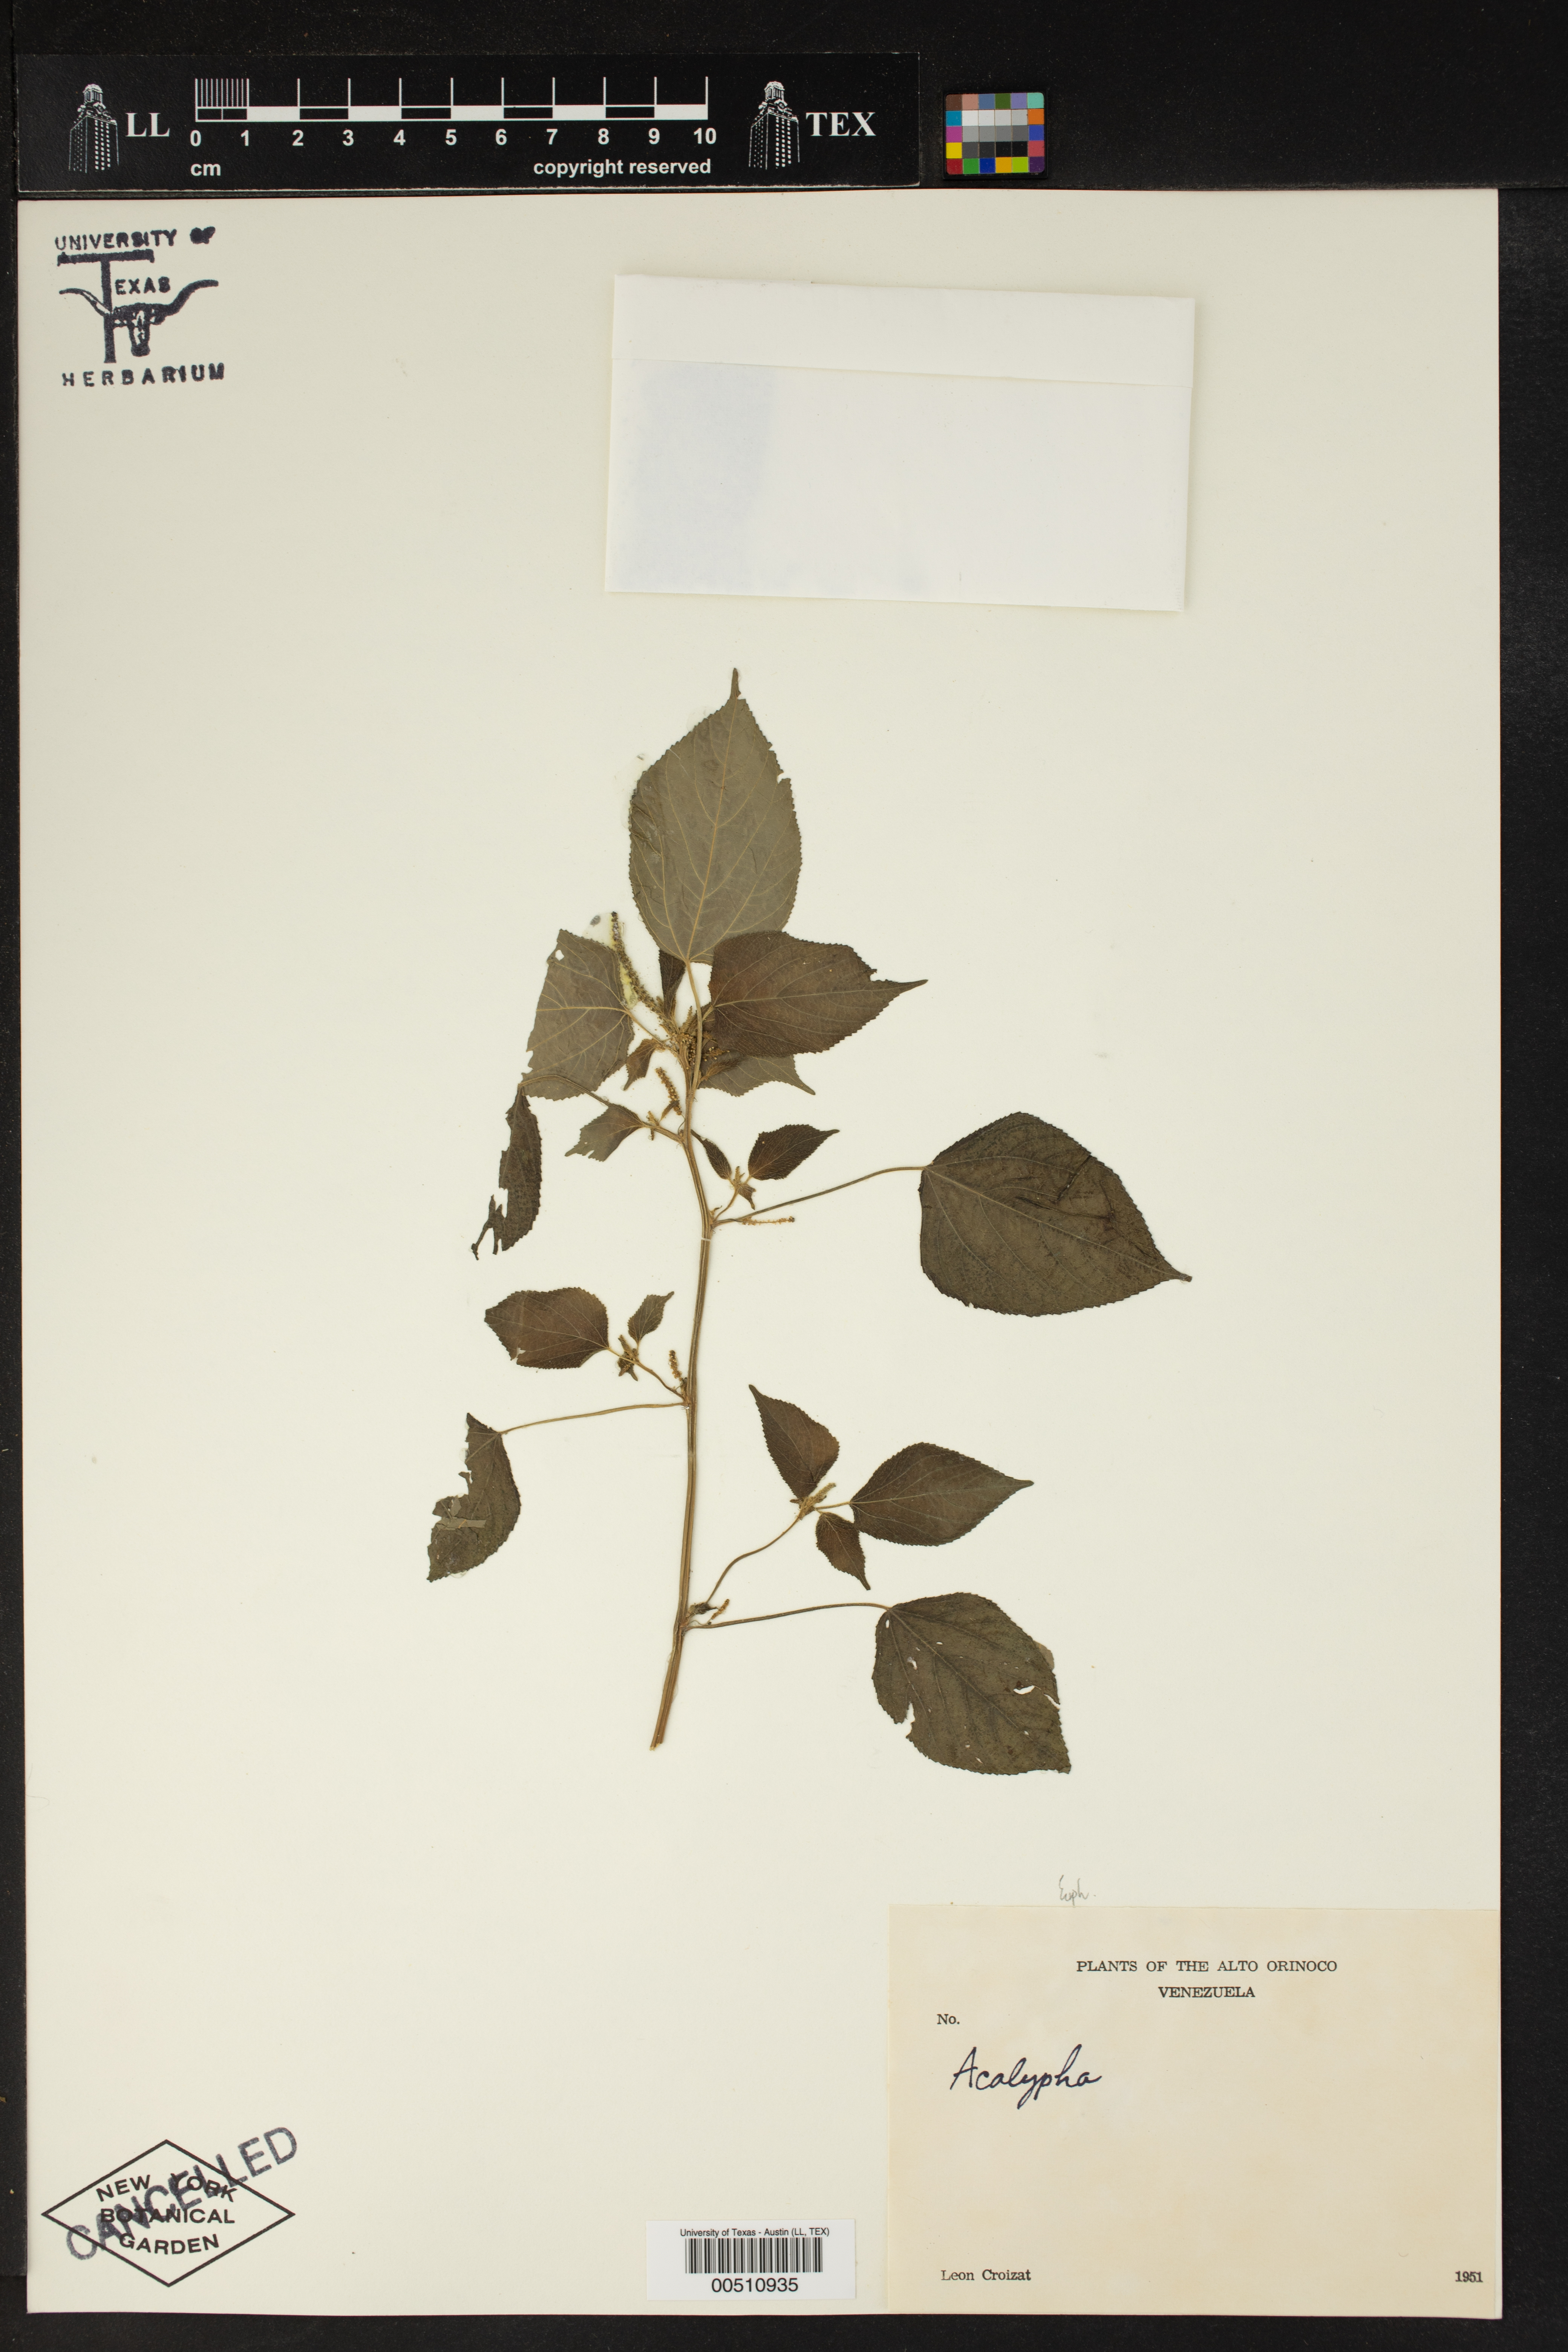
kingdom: Plantae
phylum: Tracheophyta
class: Magnoliopsida
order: Malpighiales
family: Euphorbiaceae
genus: Acalypha
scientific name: Acalypha
